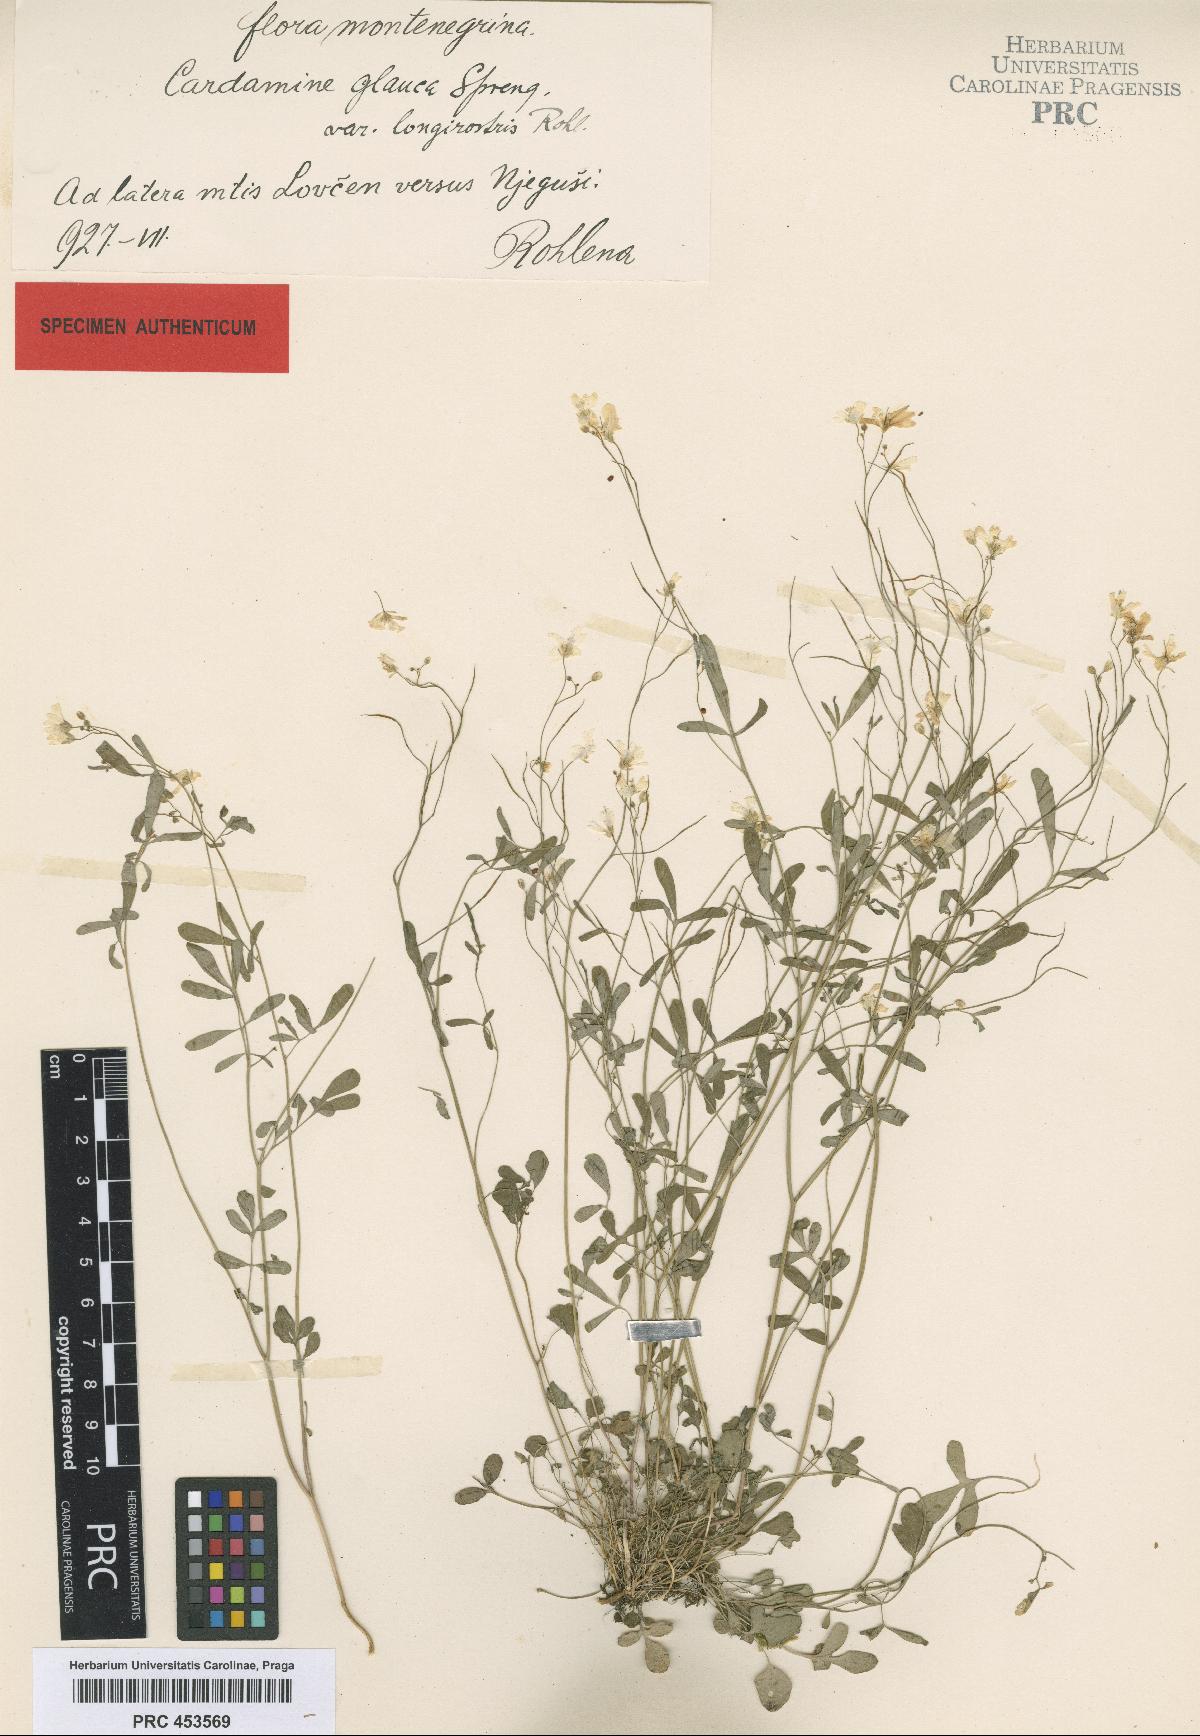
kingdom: Plantae
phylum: Tracheophyta
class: Magnoliopsida
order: Brassicales
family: Brassicaceae
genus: Cardamine
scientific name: Cardamine glauca
